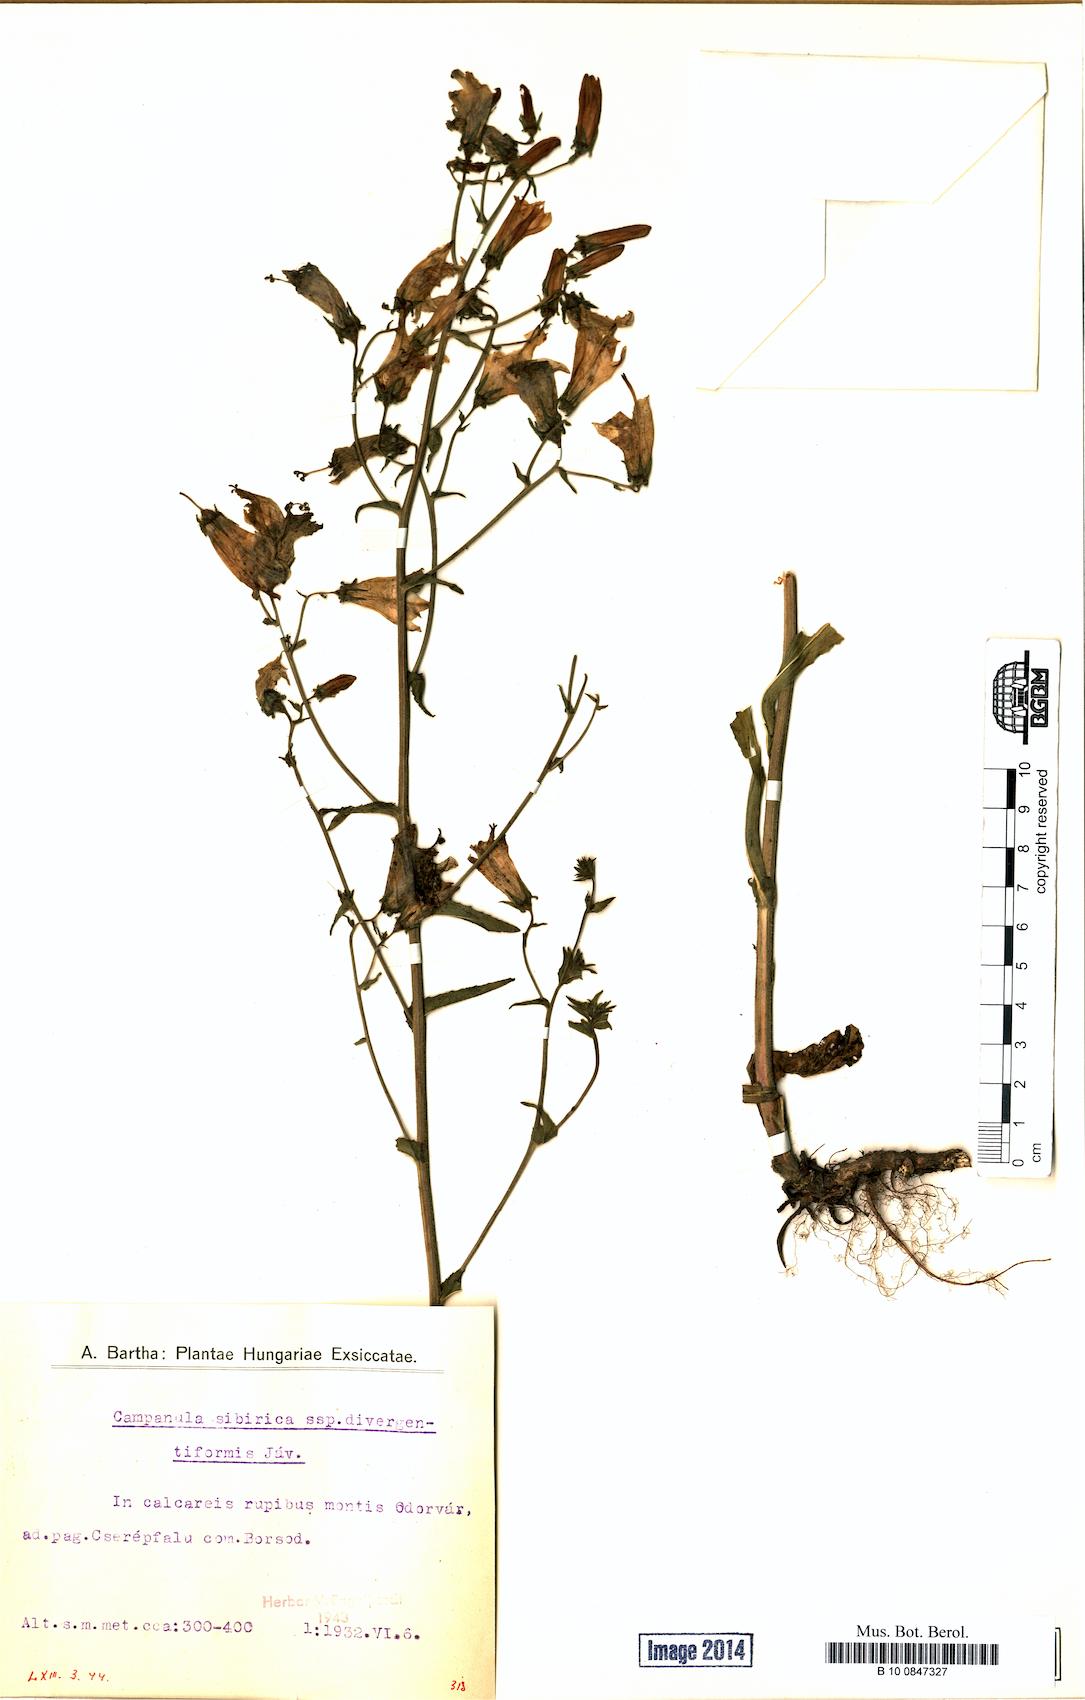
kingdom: Plantae
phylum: Tracheophyta
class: Magnoliopsida
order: Asterales
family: Campanulaceae
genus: Campanula
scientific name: Campanula sibirica
